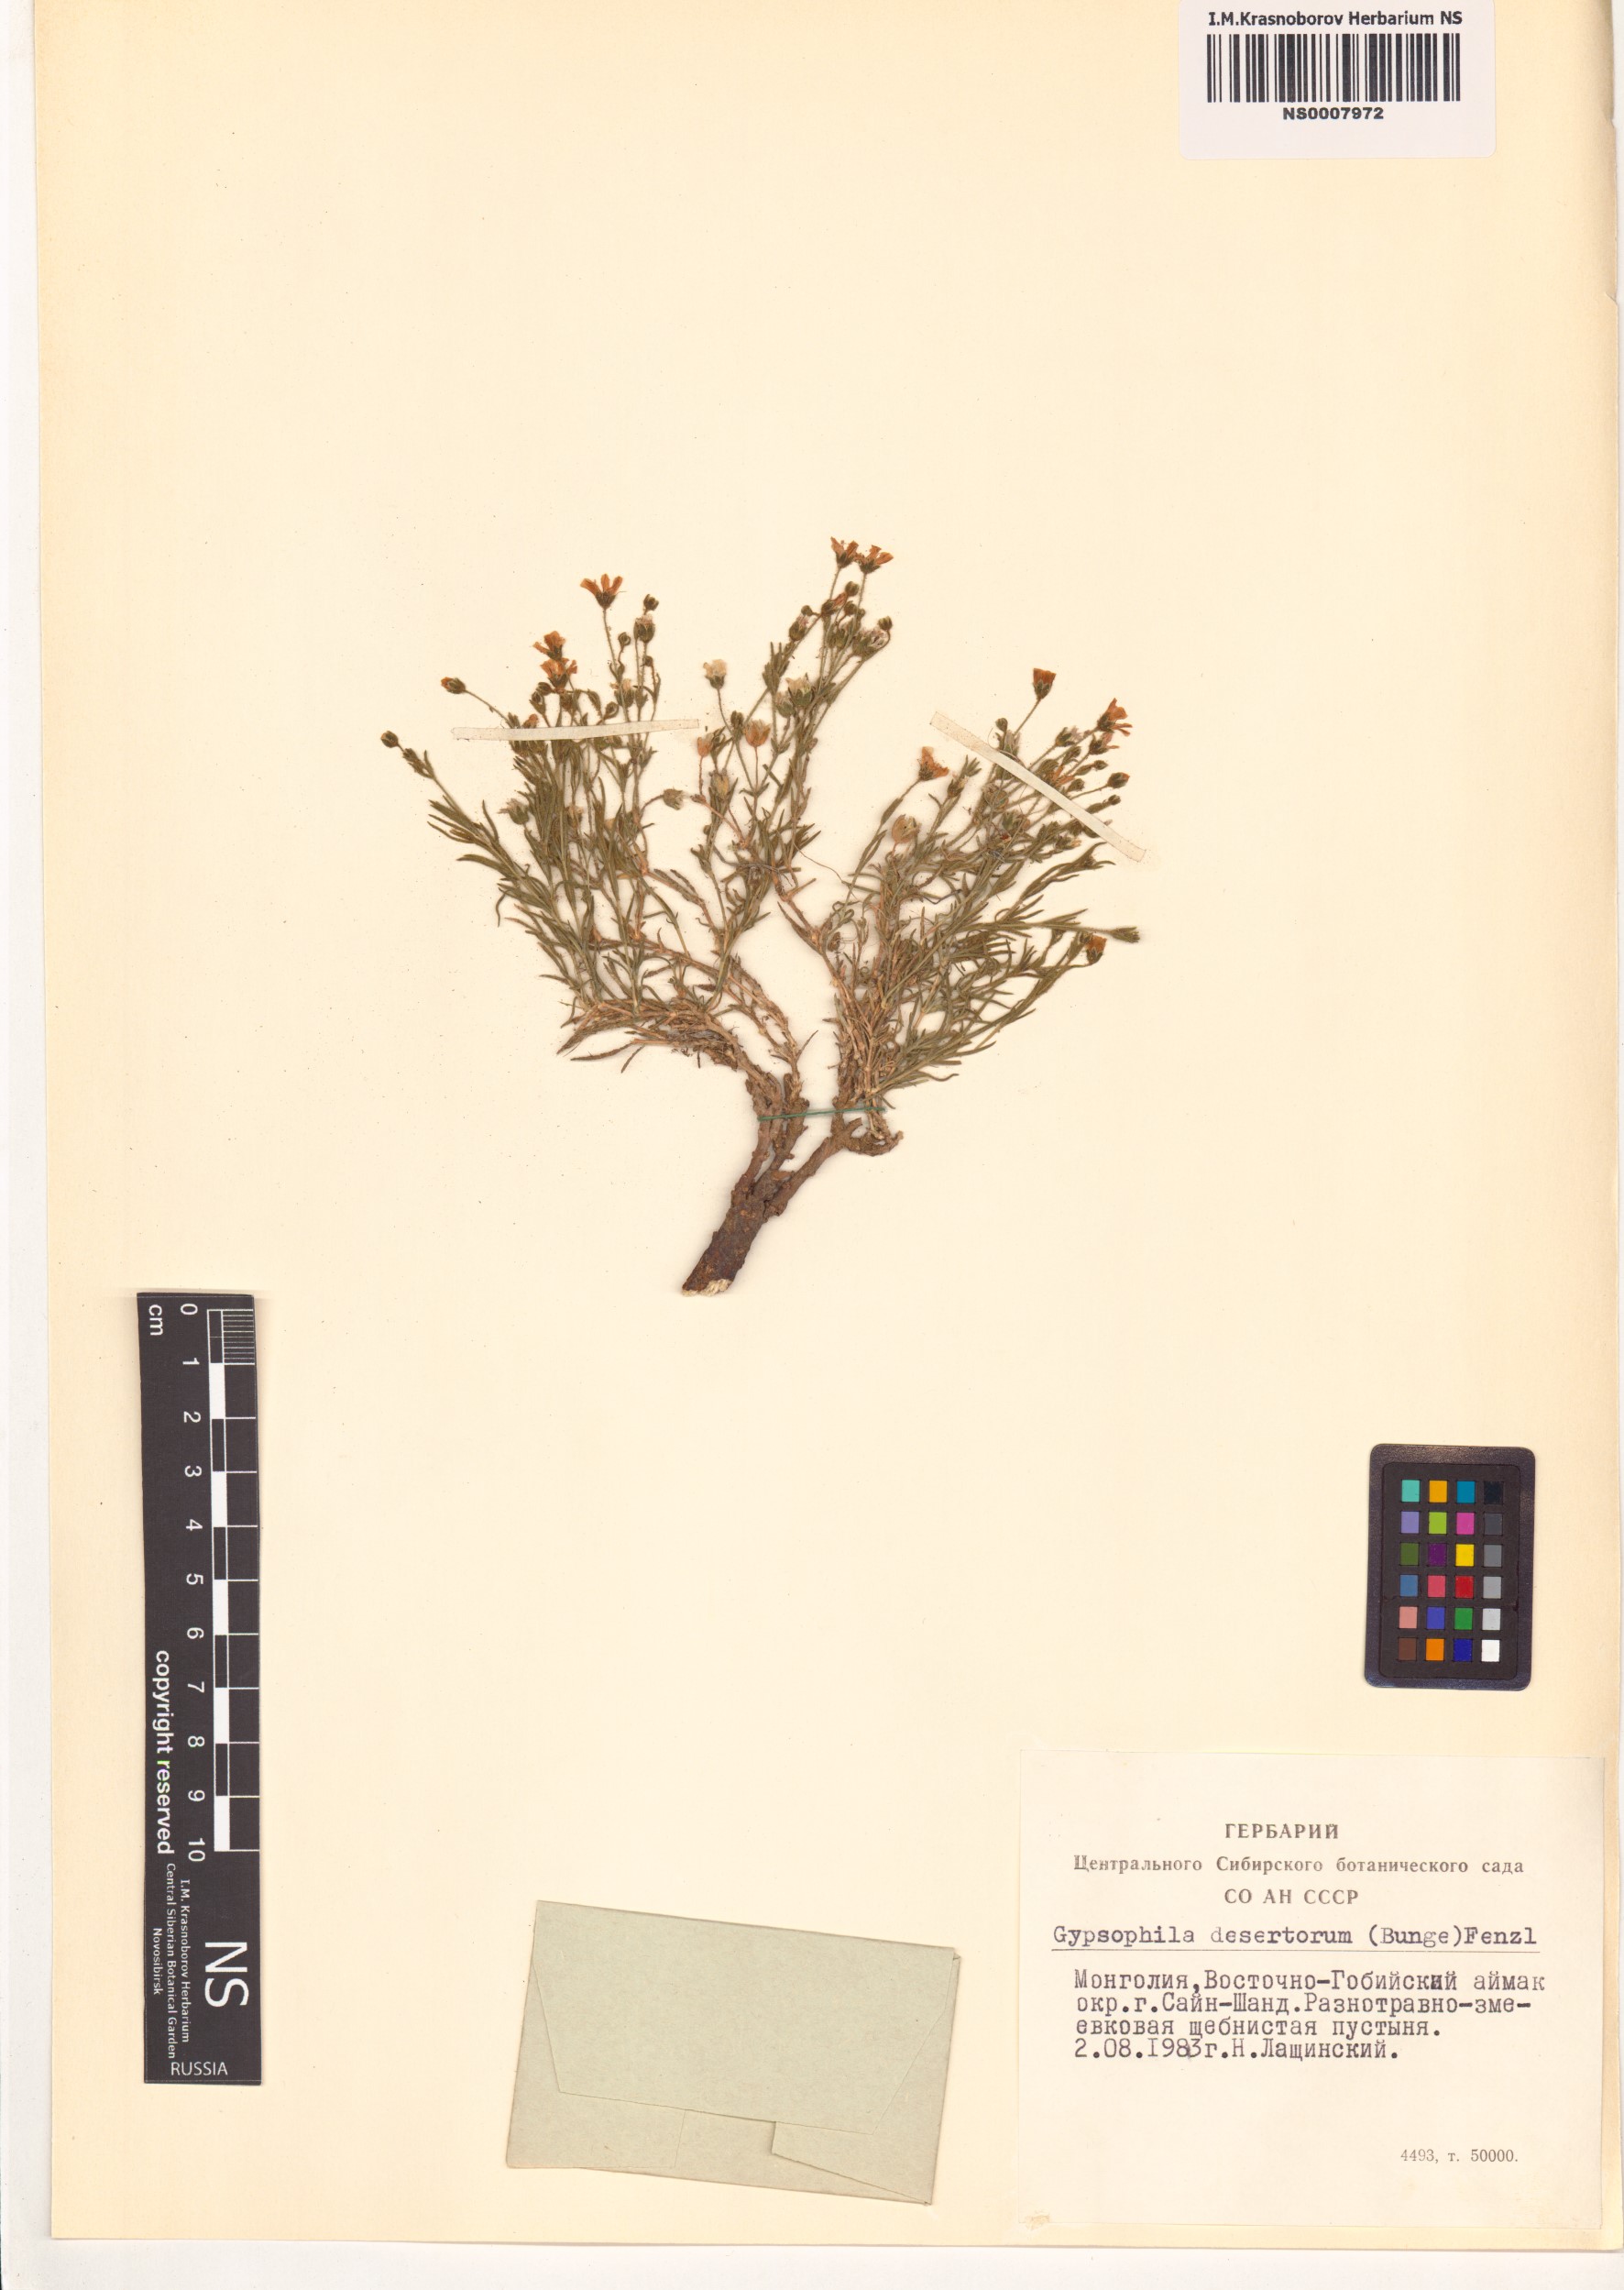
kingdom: Plantae
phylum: Tracheophyta
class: Magnoliopsida
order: Caryophyllales
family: Caryophyllaceae
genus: Heterochroa
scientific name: Heterochroa desertorum
